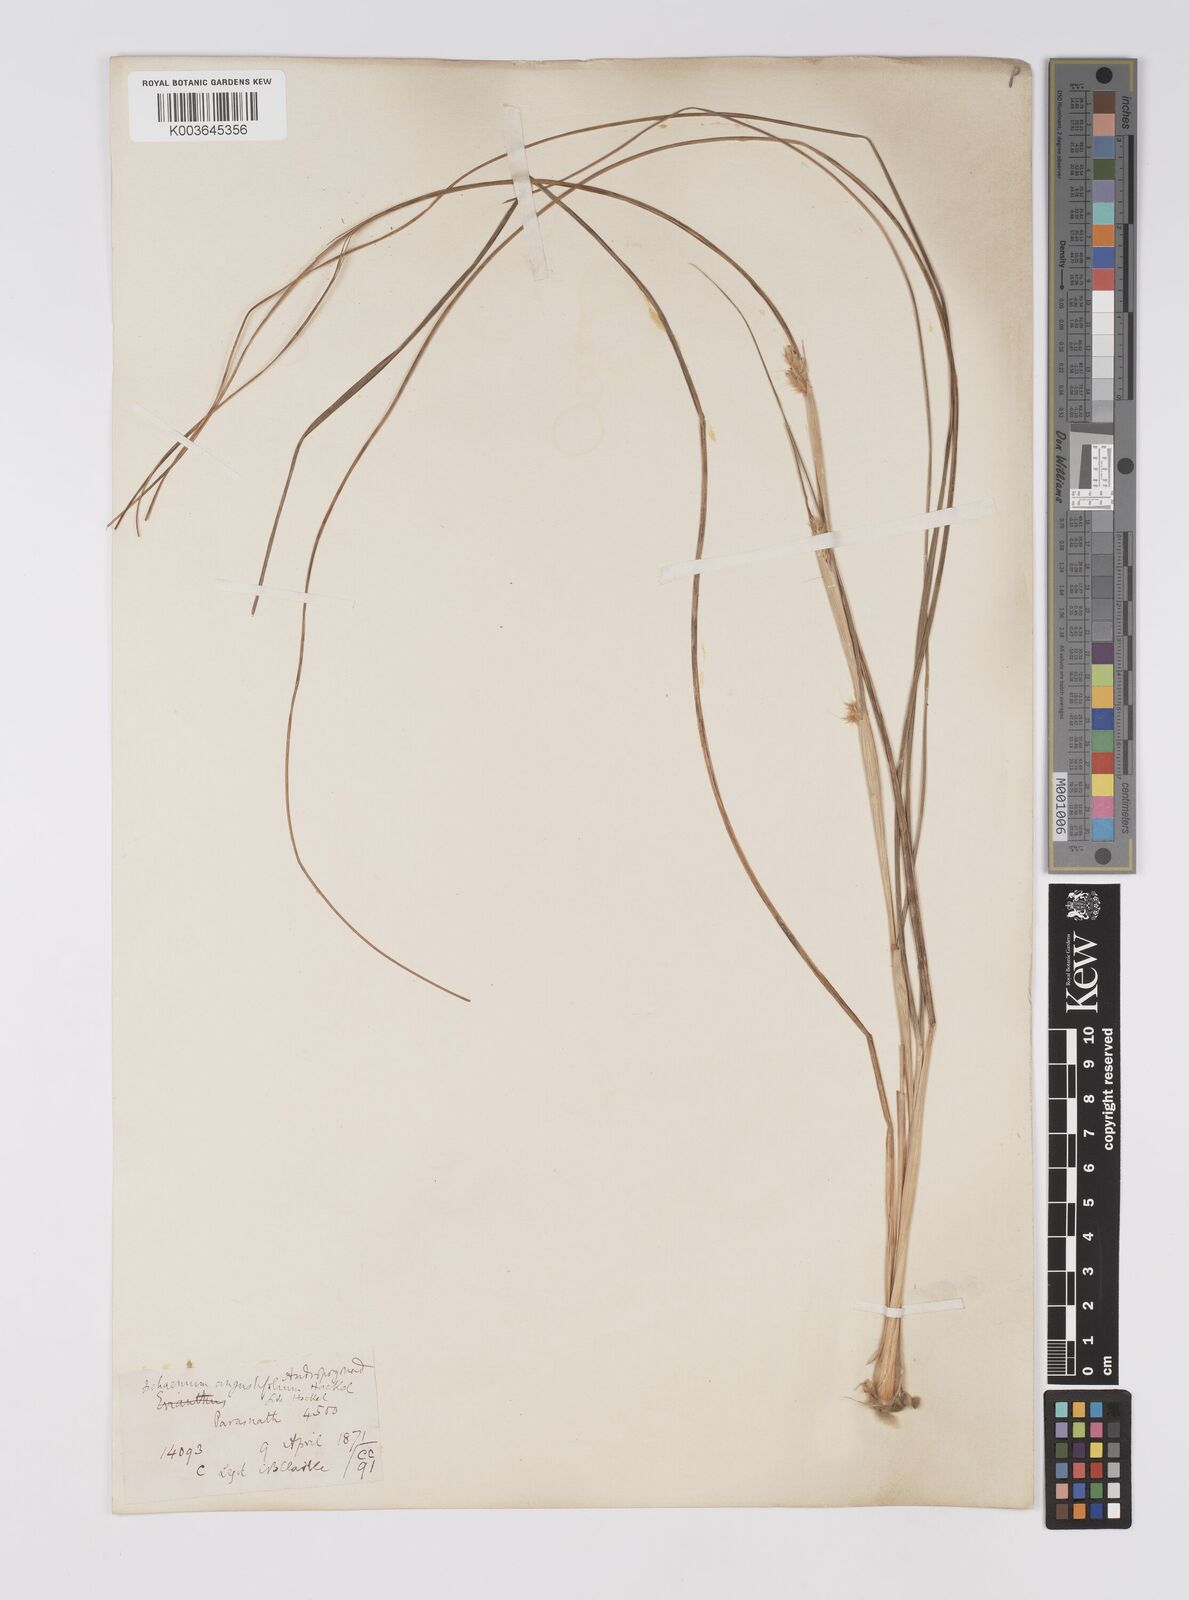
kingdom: Plantae
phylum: Tracheophyta
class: Liliopsida
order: Poales
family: Poaceae
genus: Eulaliopsis
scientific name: Eulaliopsis binata
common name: Baib grass
